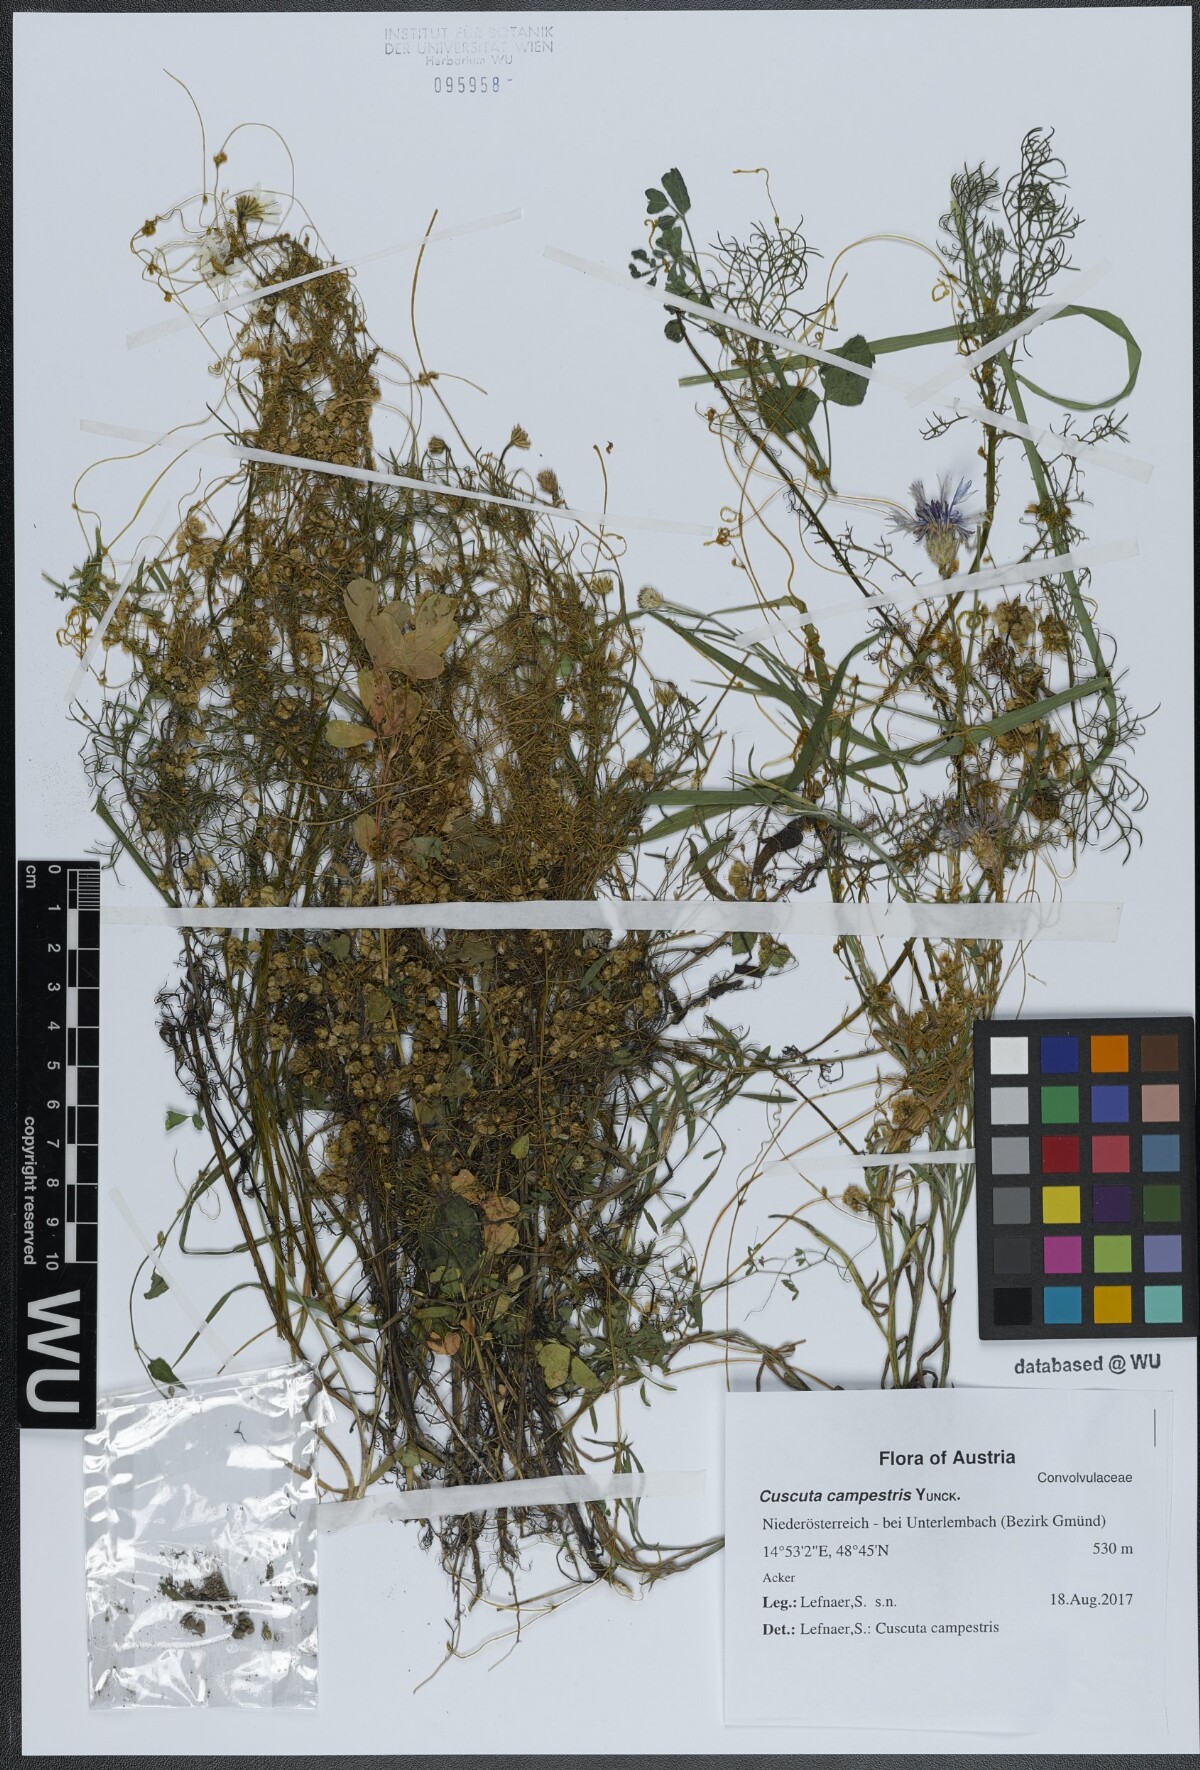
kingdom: Plantae
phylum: Tracheophyta
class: Magnoliopsida
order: Solanales
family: Convolvulaceae
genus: Cuscuta
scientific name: Cuscuta campestris
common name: Yellow dodder
